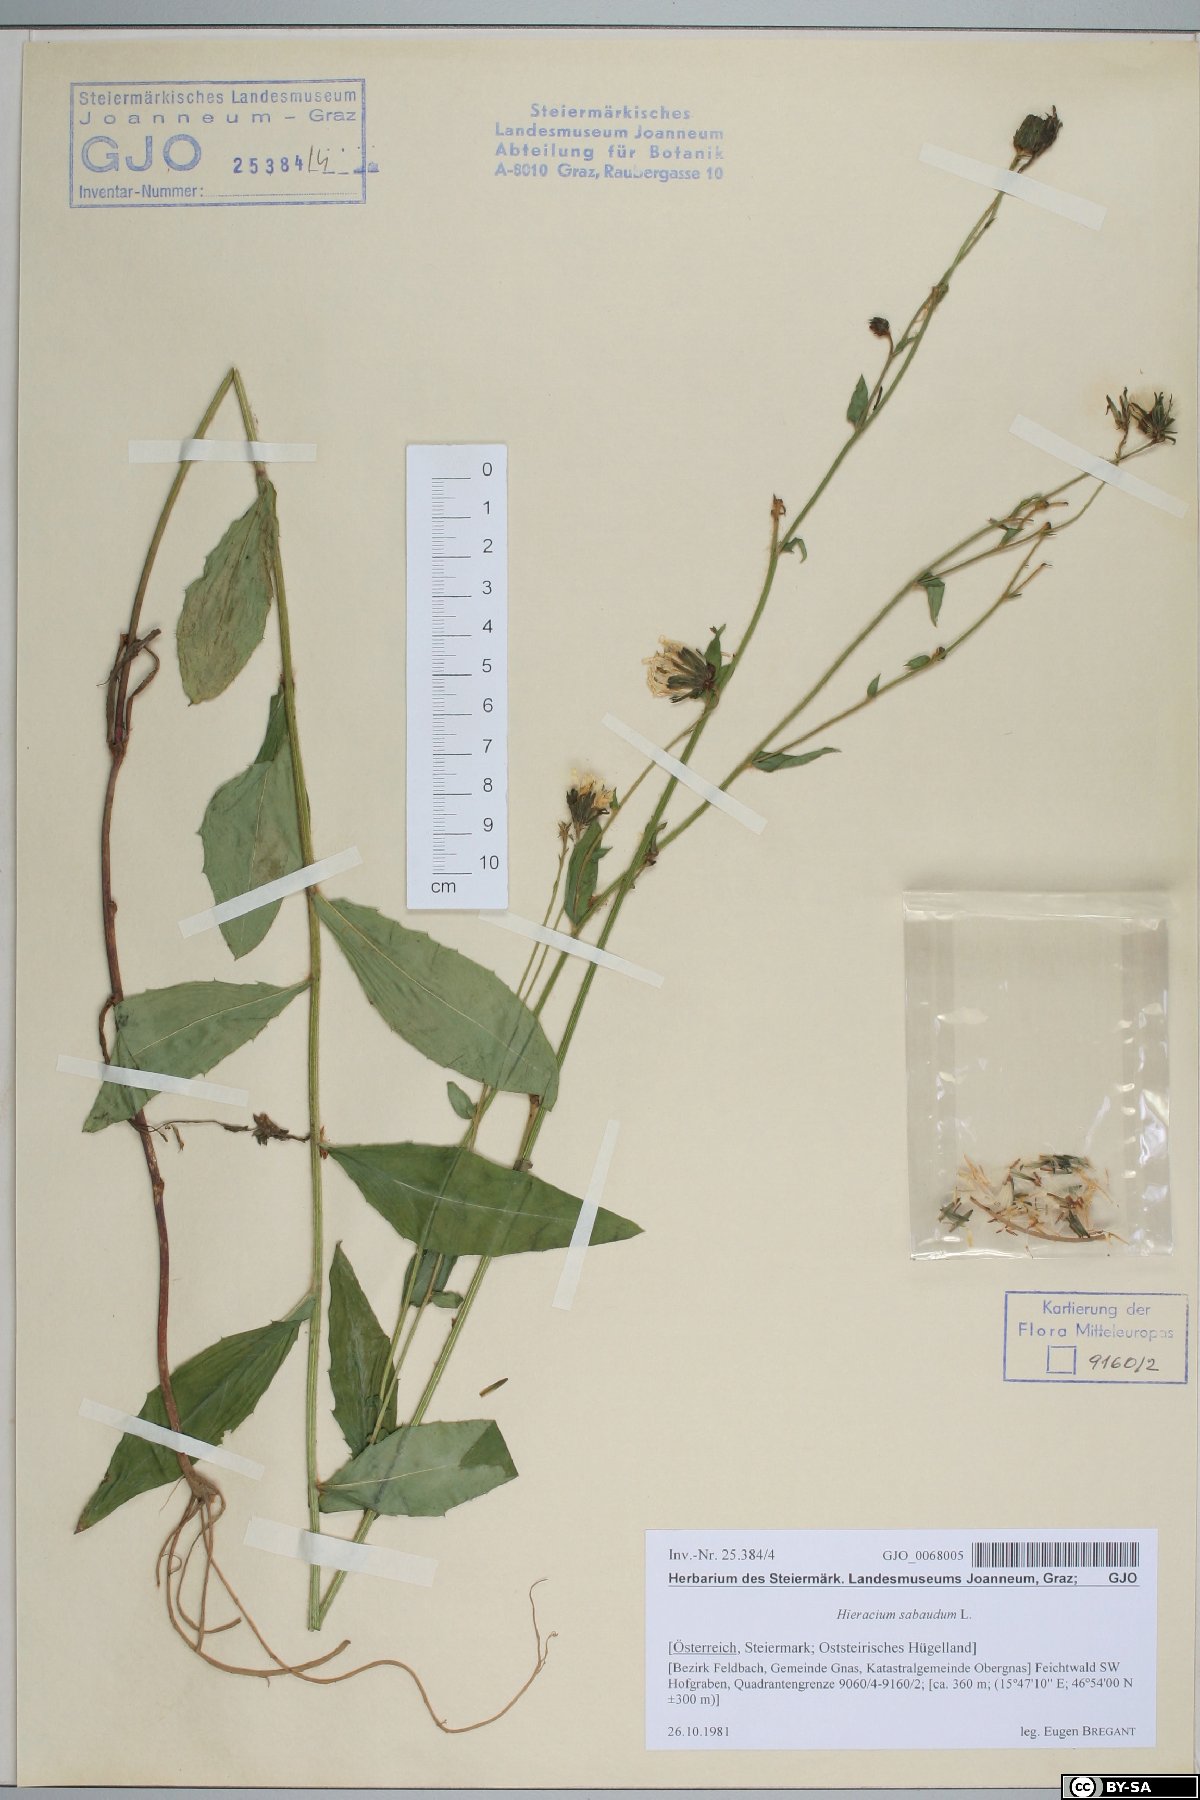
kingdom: Plantae
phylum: Tracheophyta
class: Magnoliopsida
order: Asterales
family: Asteraceae
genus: Hieracium
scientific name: Hieracium sabaudum
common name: New england hawkweed
